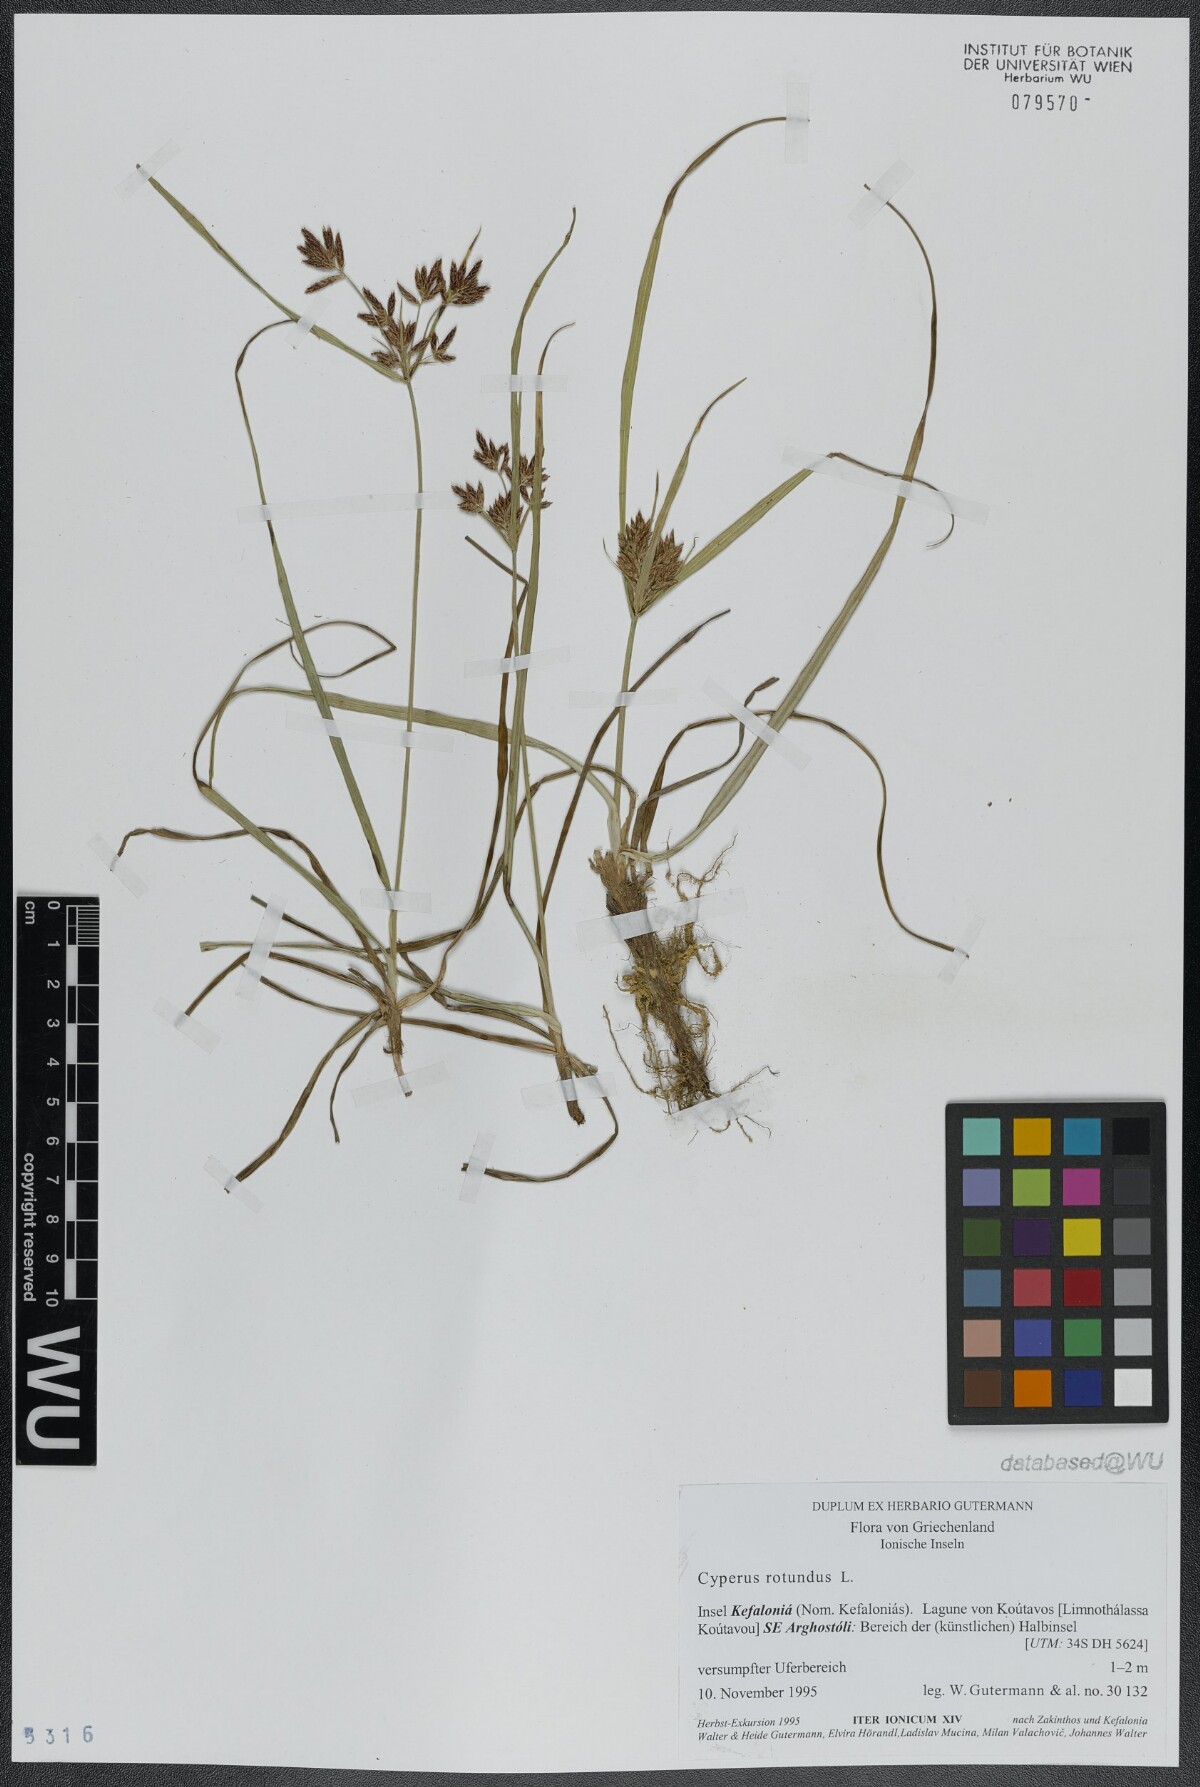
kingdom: Plantae
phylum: Tracheophyta
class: Liliopsida
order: Poales
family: Cyperaceae
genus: Cyperus
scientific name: Cyperus rotundus
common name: Nutgrass
